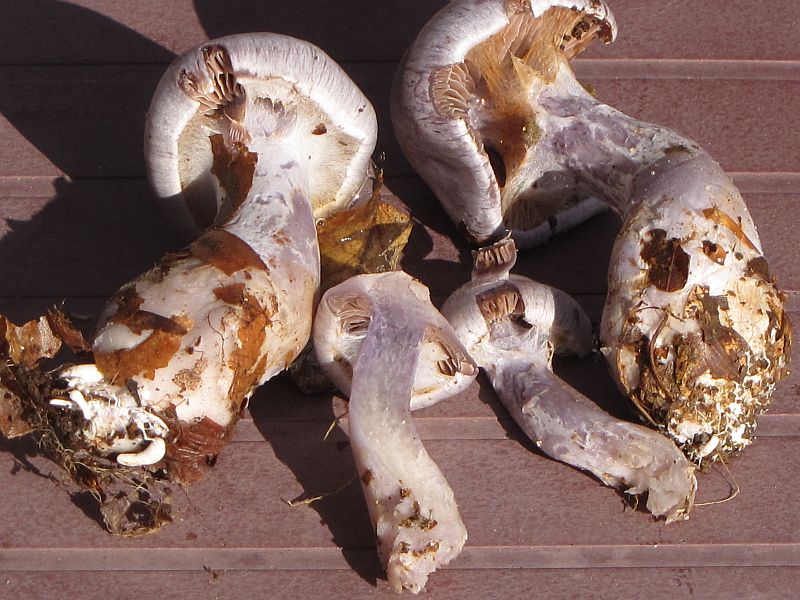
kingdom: Fungi
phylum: Basidiomycota
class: Agaricomycetes
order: Agaricales
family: Cortinariaceae
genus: Cortinarius
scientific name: Cortinarius alboviolaceus
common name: lysviolet slørhat
